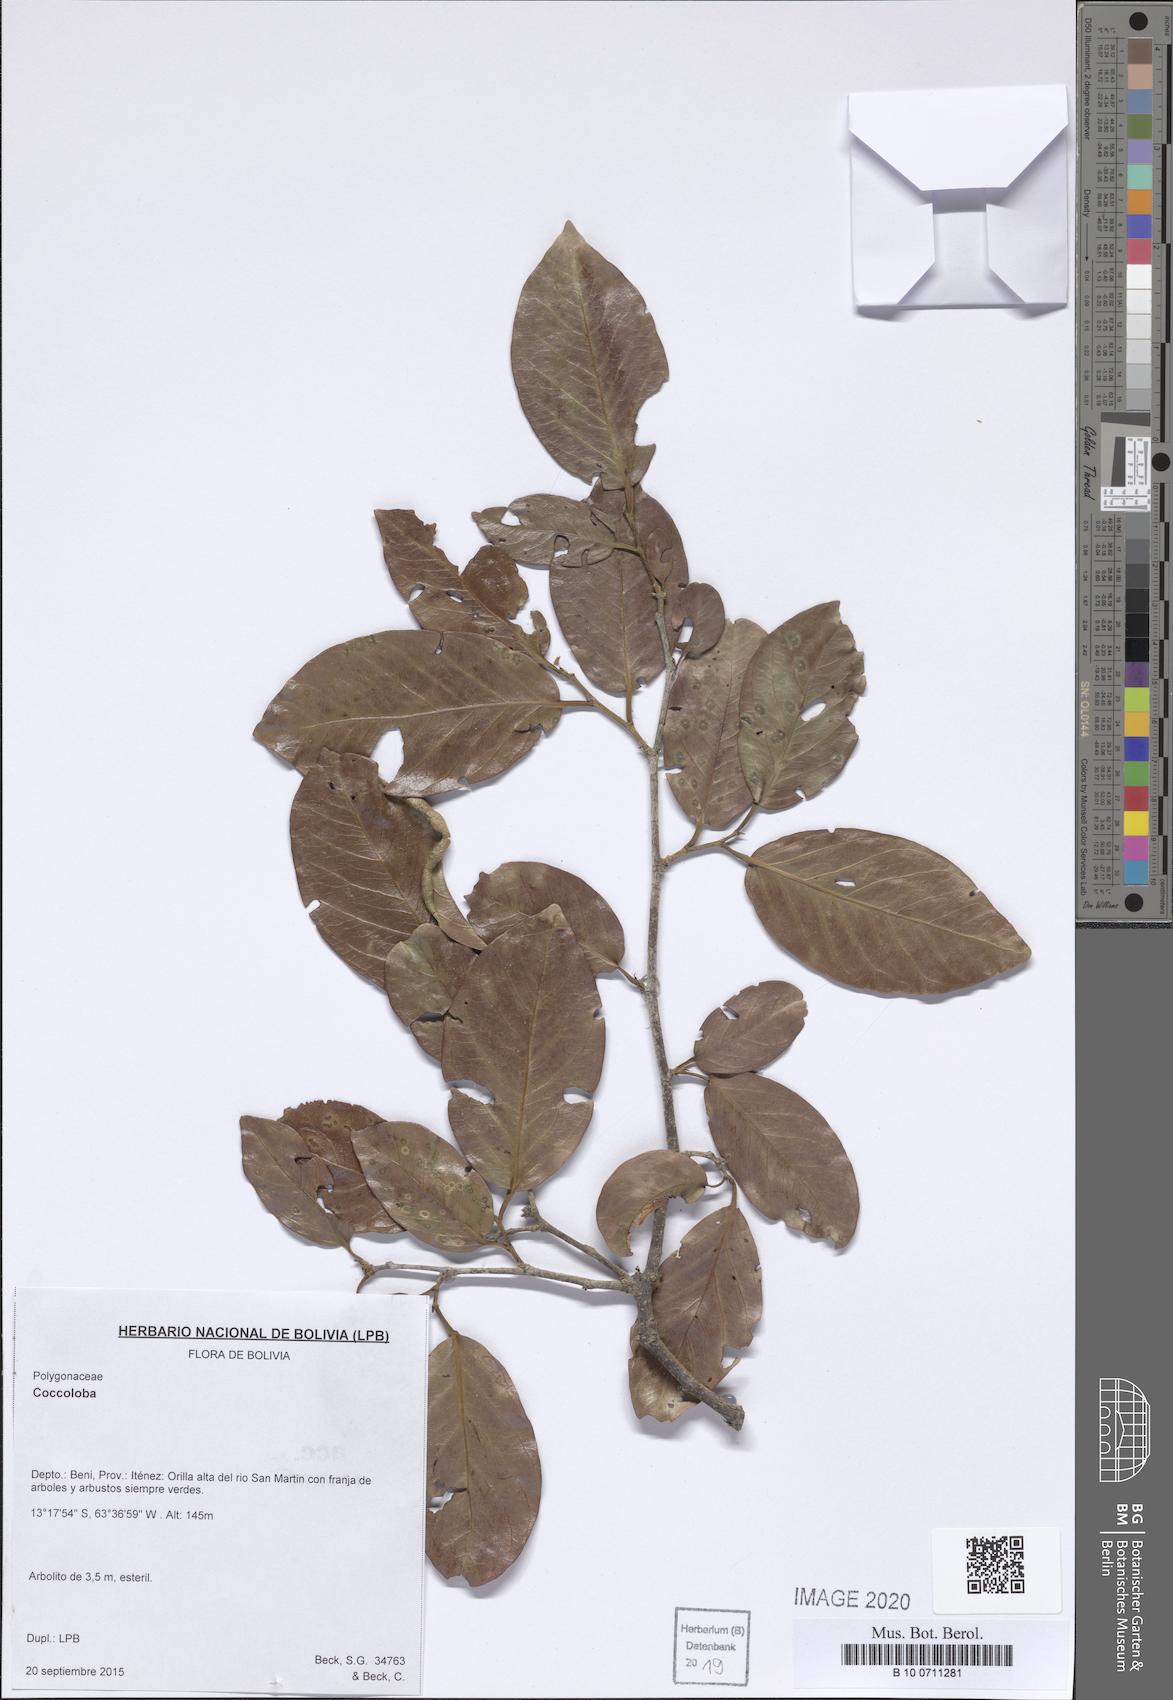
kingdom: Plantae
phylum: Tracheophyta
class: Magnoliopsida
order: Caryophyllales
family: Polygonaceae
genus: Coccoloba
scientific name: Coccoloba
